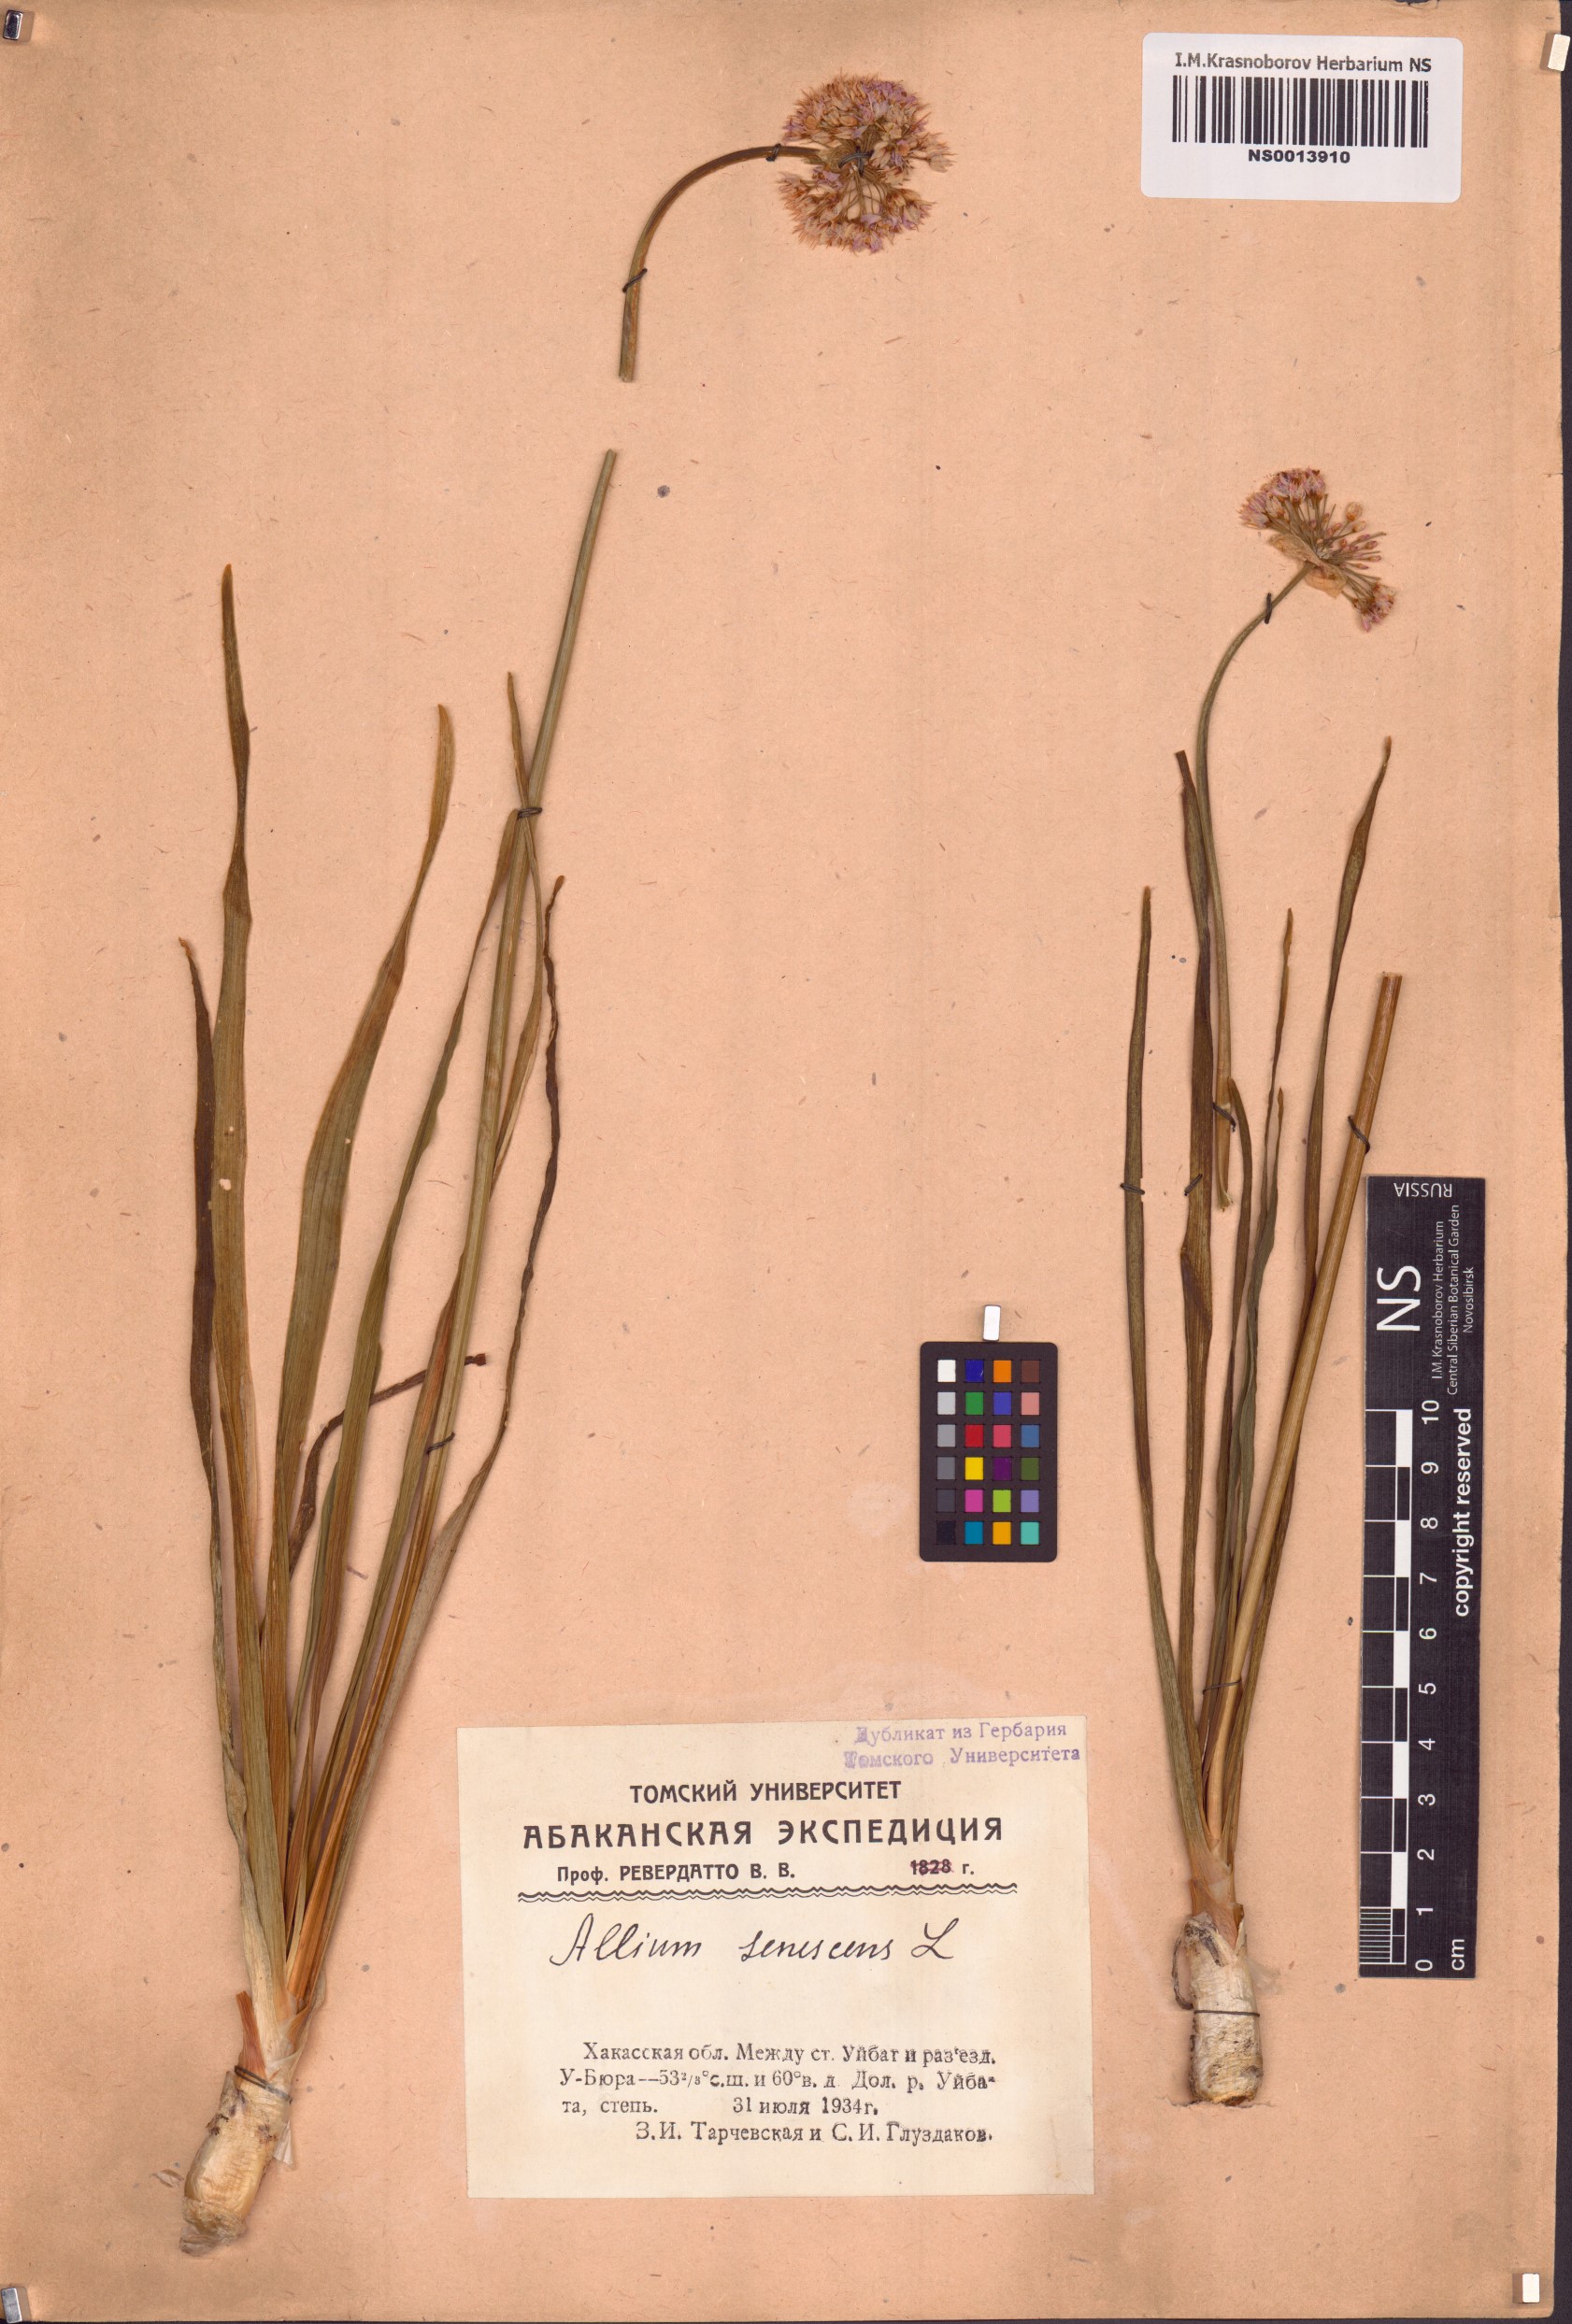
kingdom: Plantae
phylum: Tracheophyta
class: Liliopsida
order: Asparagales
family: Amaryllidaceae
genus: Allium
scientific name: Allium senescens
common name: German garlic
